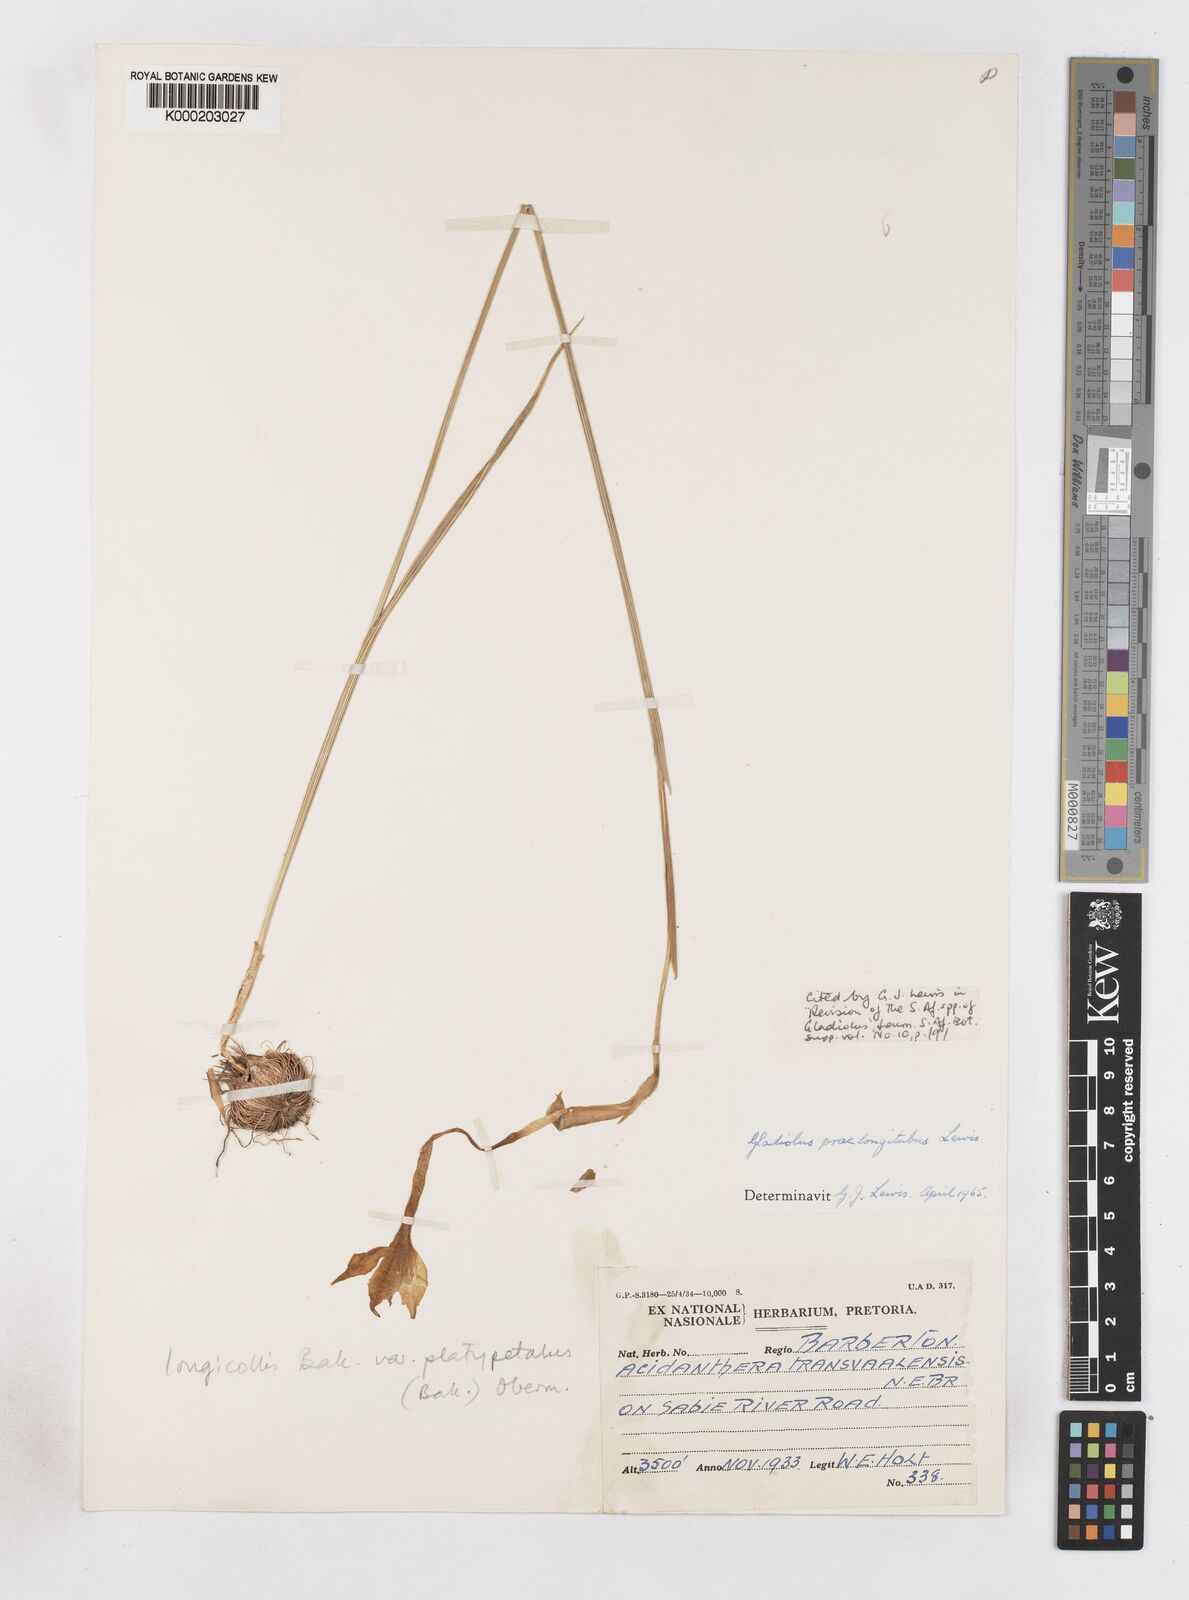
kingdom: Plantae
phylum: Tracheophyta
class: Liliopsida
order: Asparagales
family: Iridaceae
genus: Gladiolus
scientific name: Gladiolus longicollis
